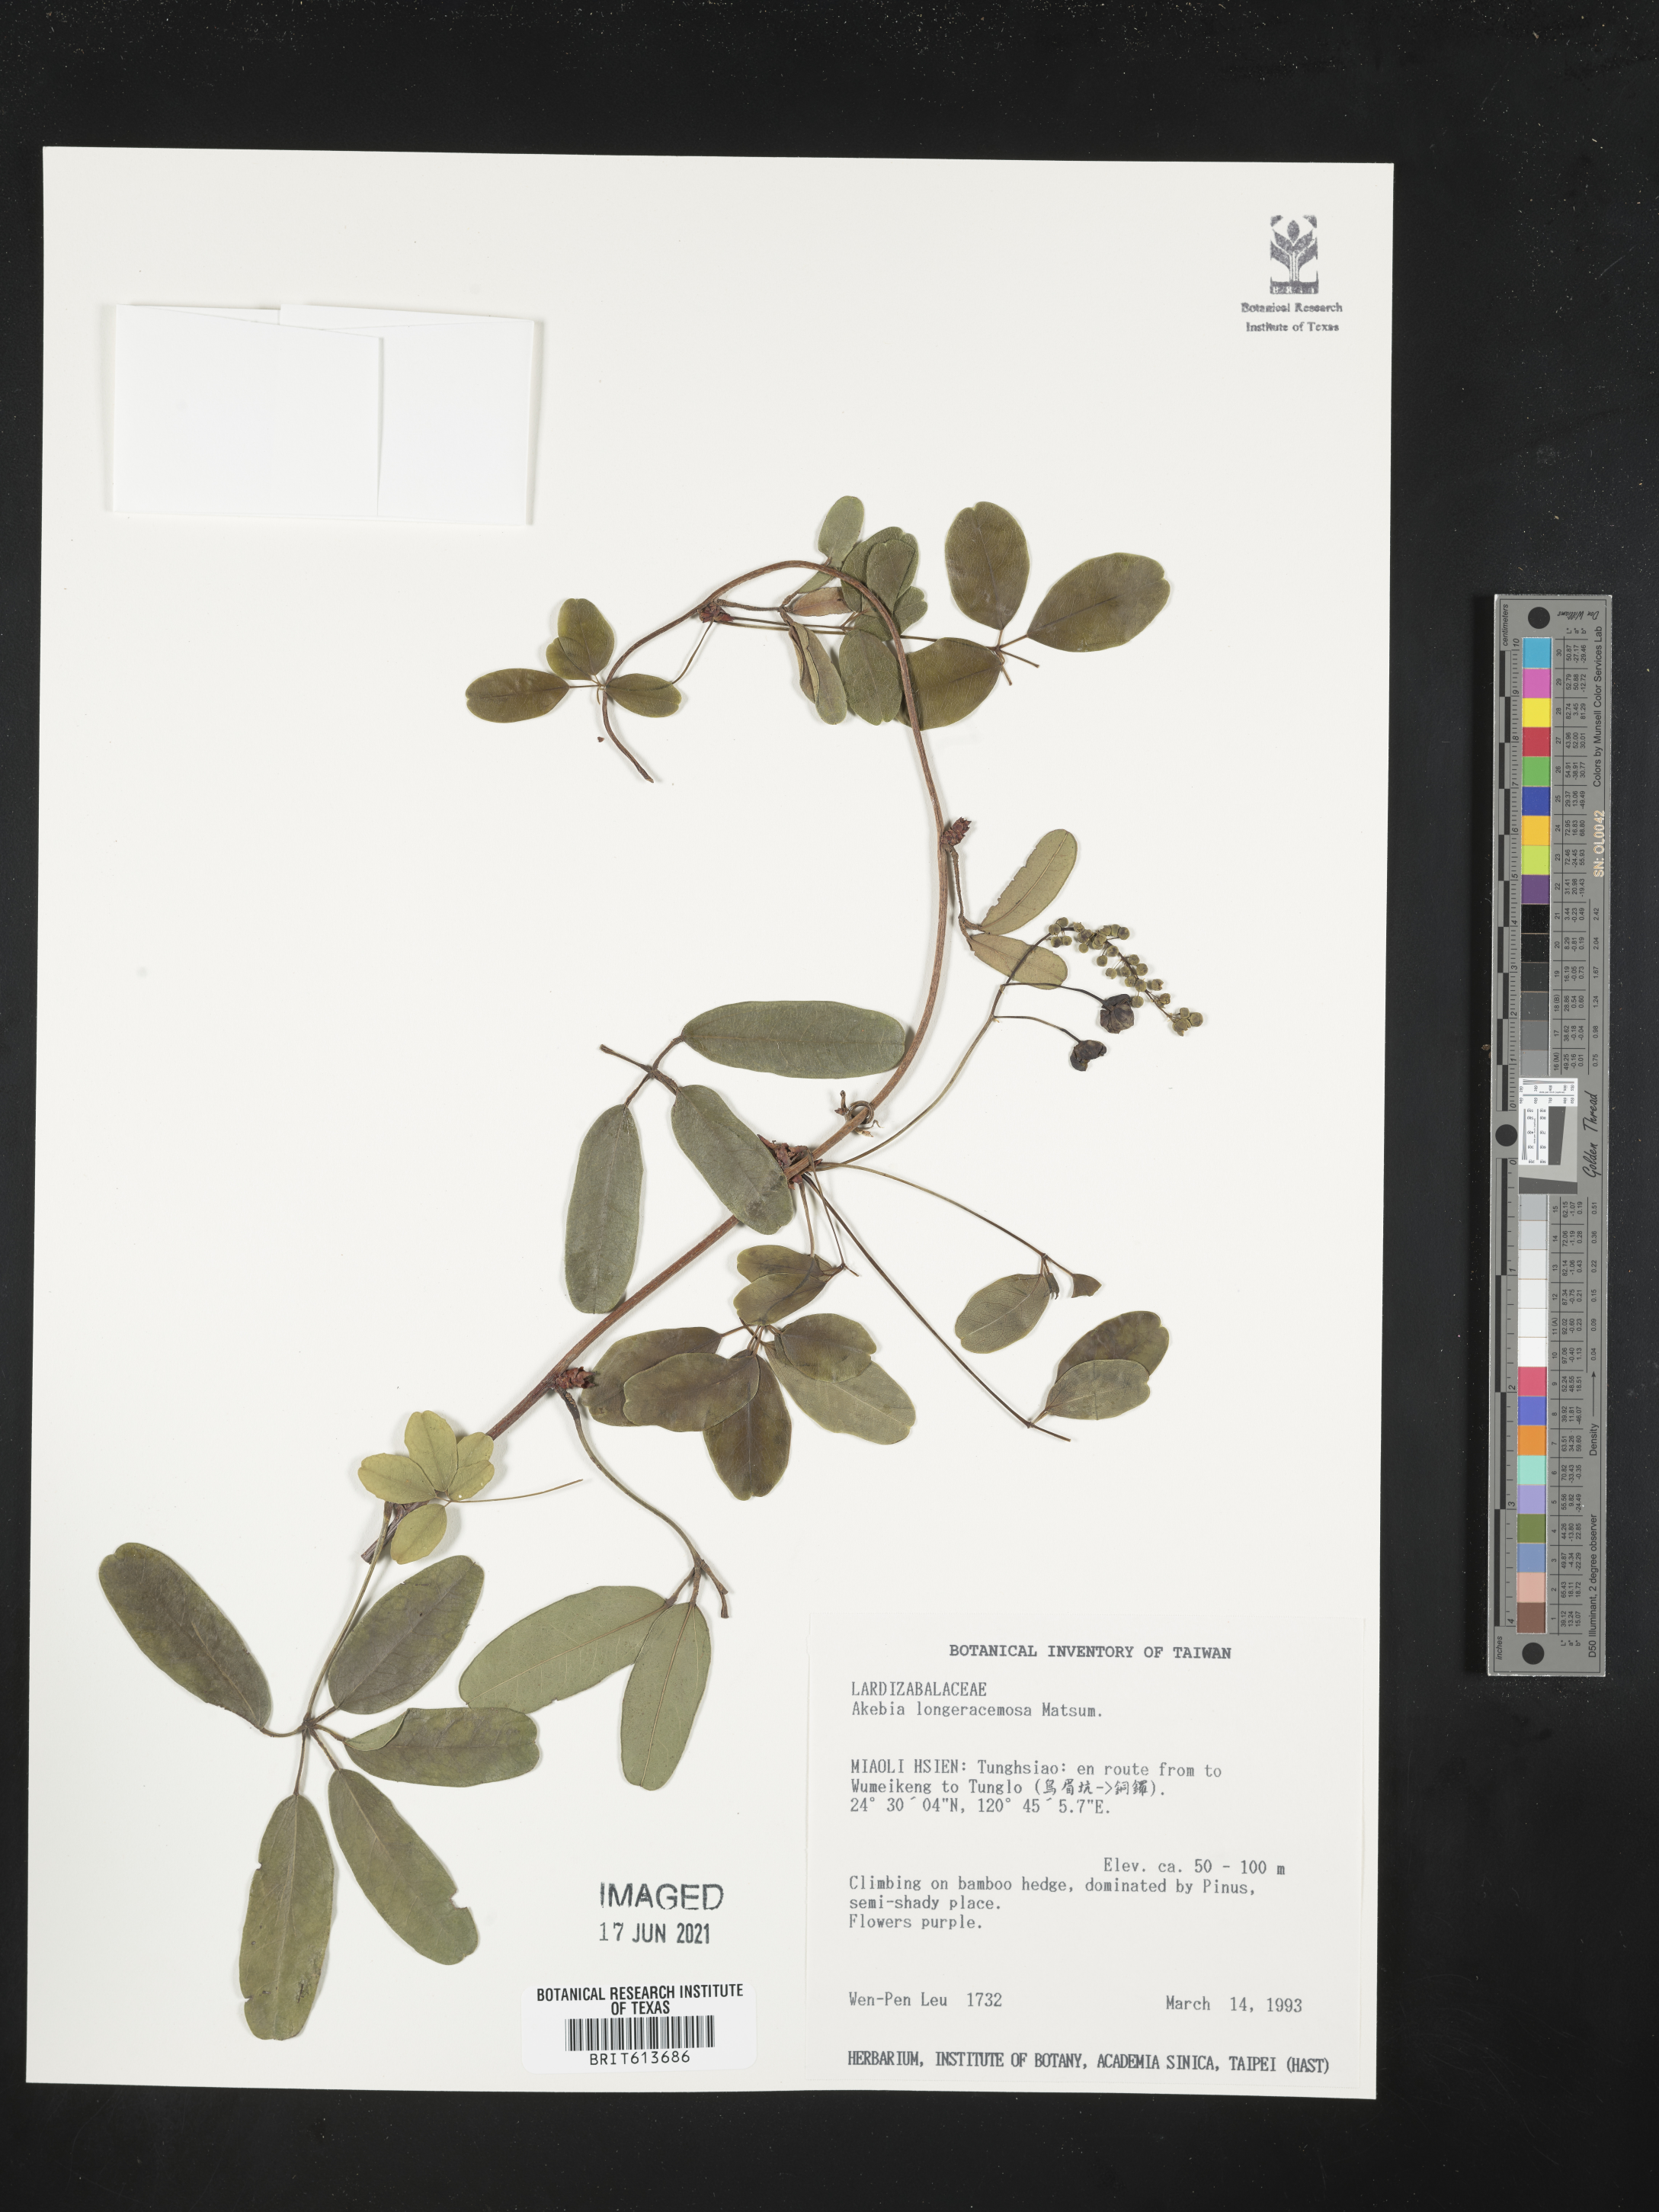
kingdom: Plantae
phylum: Tracheophyta
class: Magnoliopsida
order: Ranunculales
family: Lardizabalaceae
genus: Akebia
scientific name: Akebia longeracemosa
